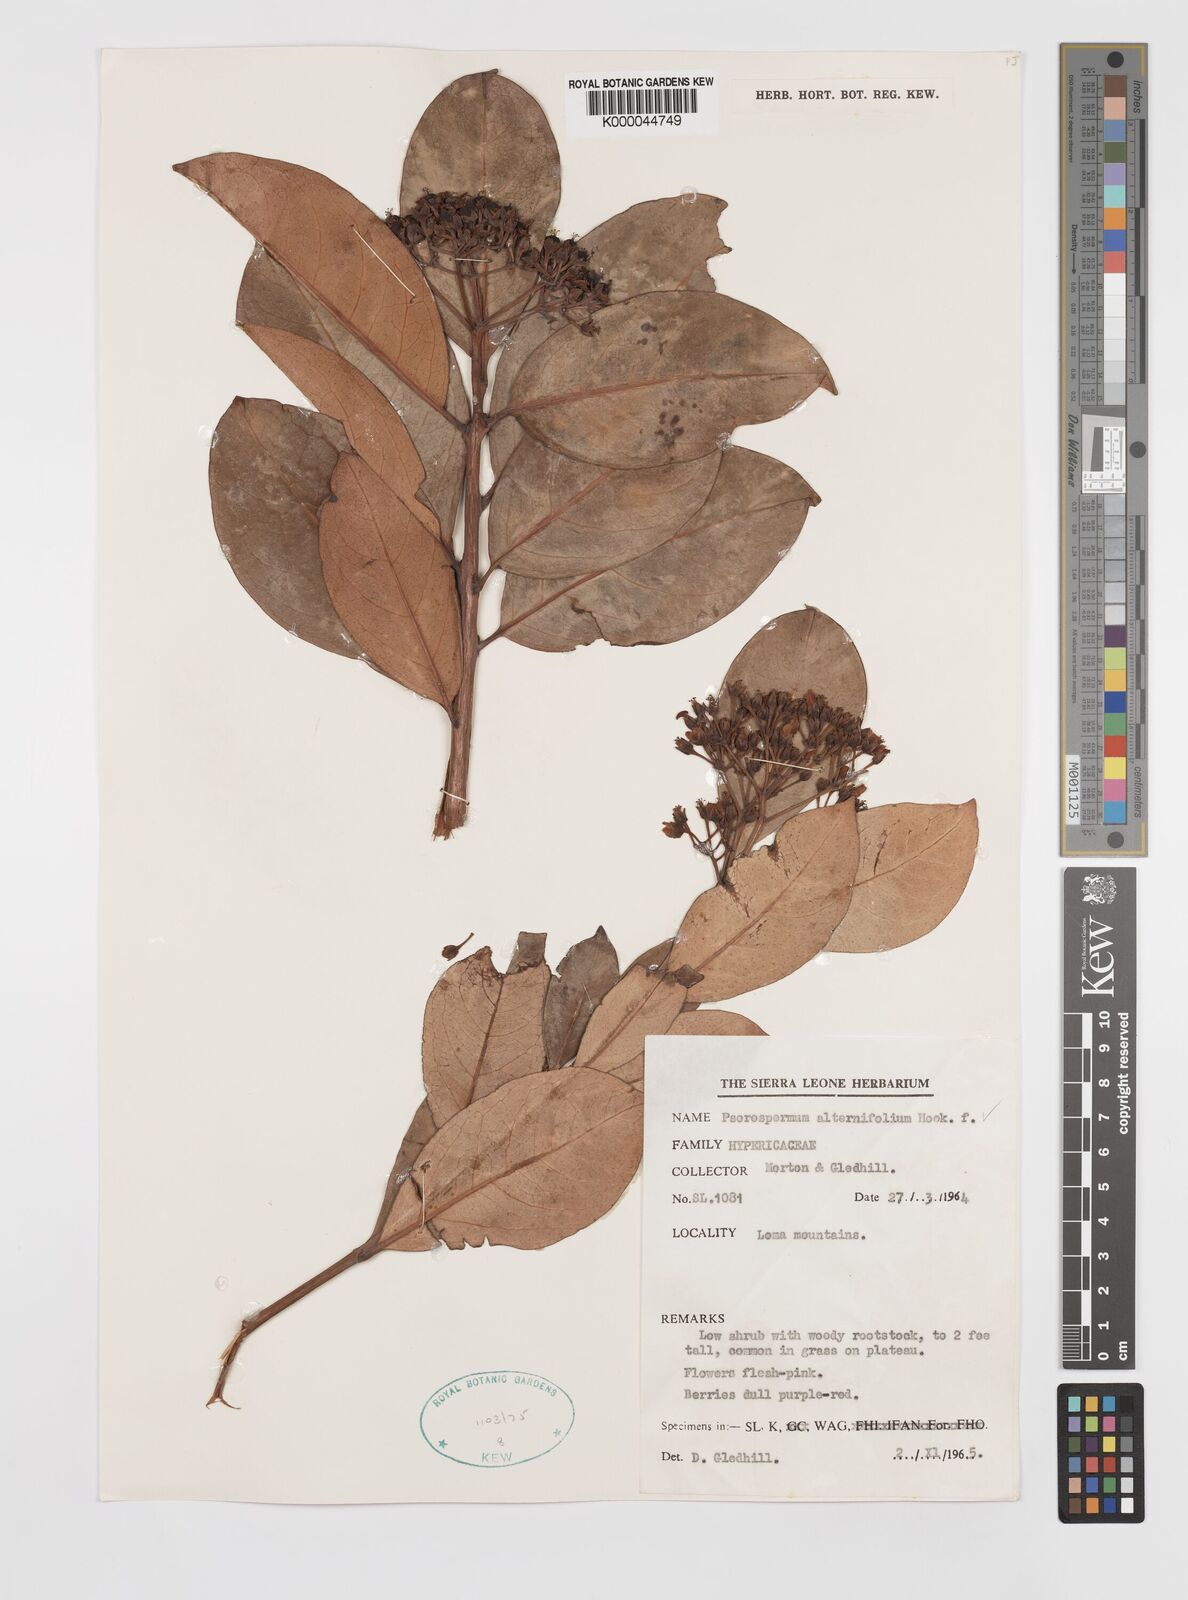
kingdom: Plantae
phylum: Tracheophyta
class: Magnoliopsida
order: Malpighiales
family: Hypericaceae
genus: Psorospermum
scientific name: Psorospermum alternifolium
